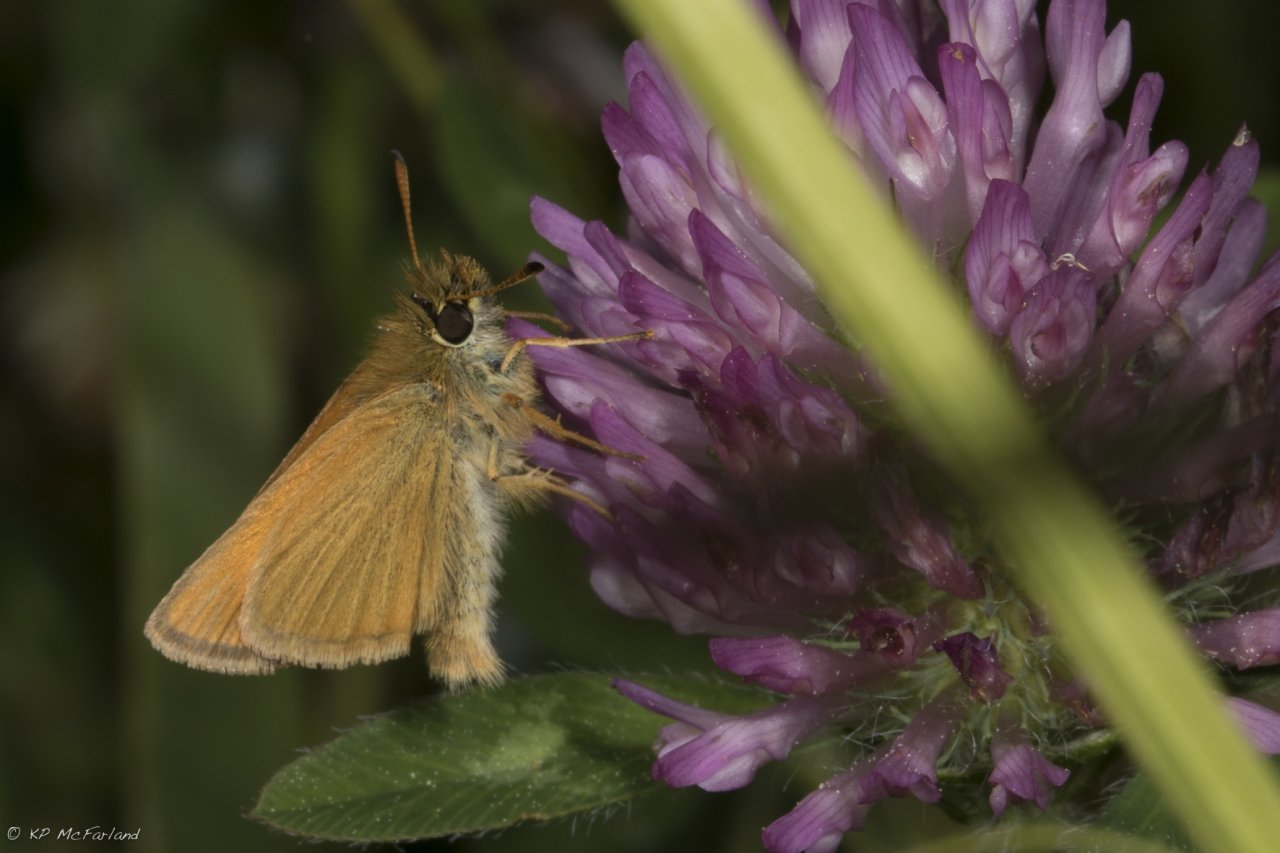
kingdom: Animalia
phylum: Arthropoda
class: Insecta
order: Lepidoptera
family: Hesperiidae
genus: Thymelicus
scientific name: Thymelicus lineola
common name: European Skipper
